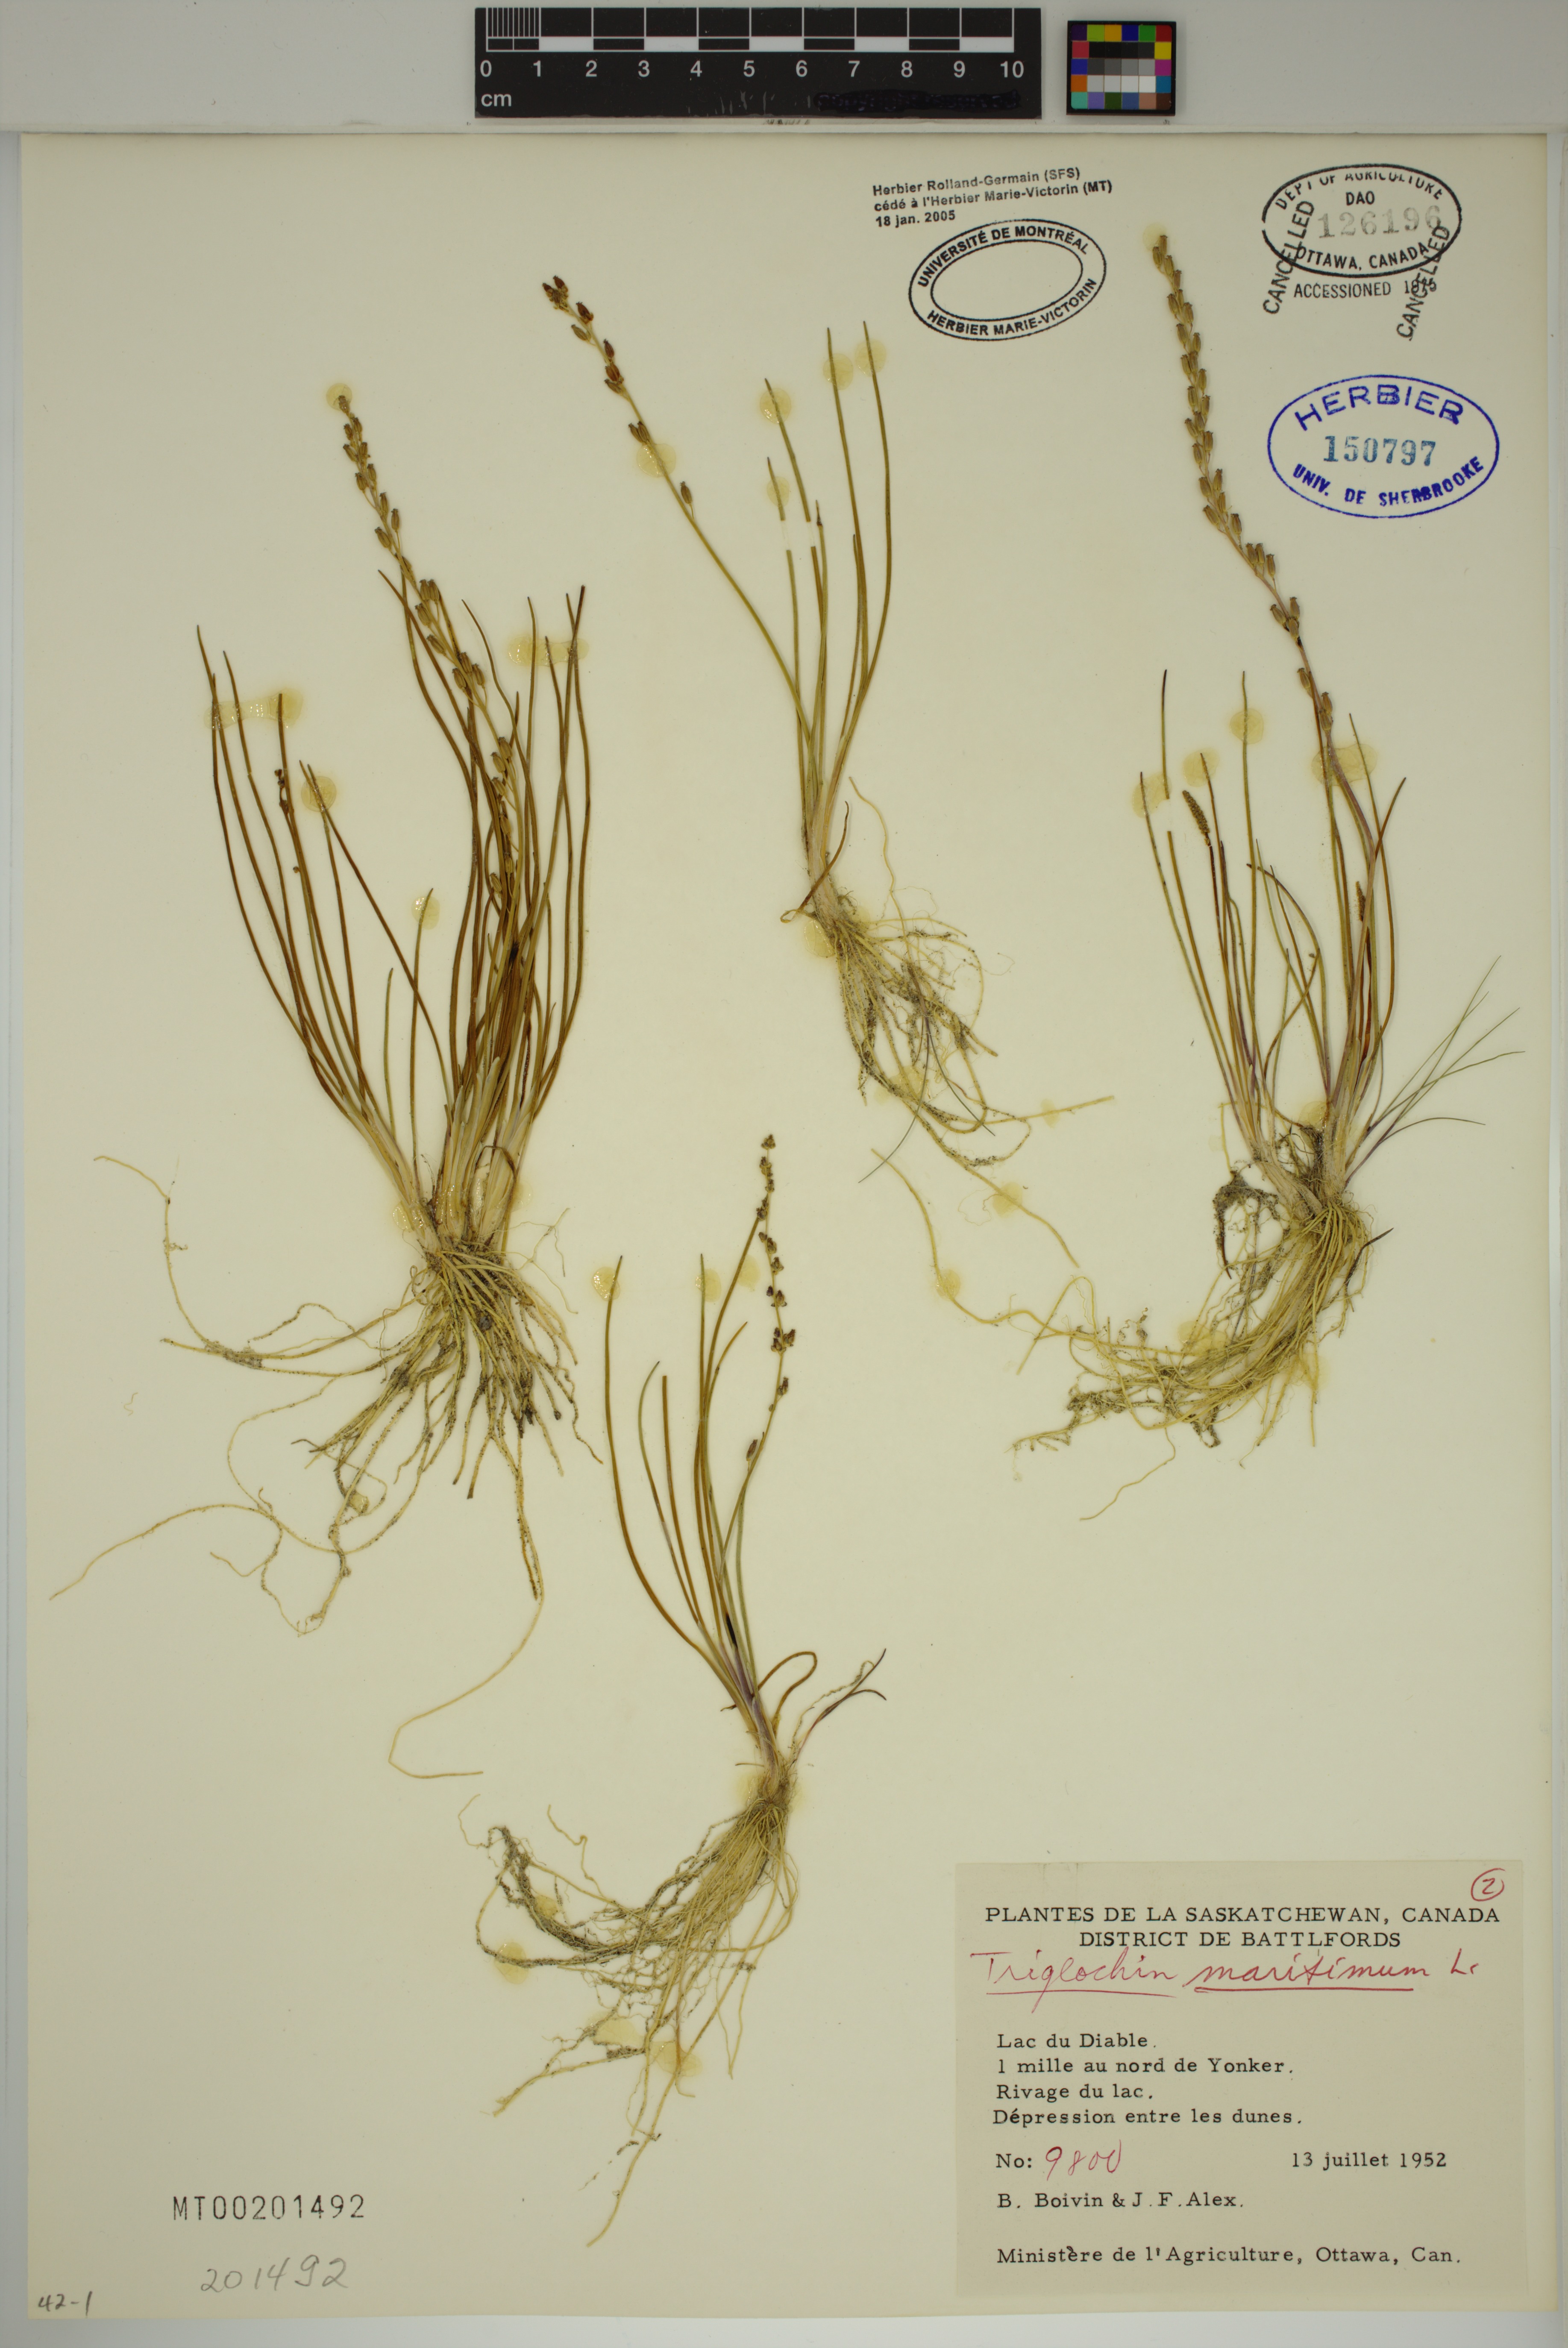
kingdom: Plantae
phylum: Tracheophyta
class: Liliopsida
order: Alismatales
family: Juncaginaceae
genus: Triglochin
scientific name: Triglochin maritima
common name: Sea arrowgrass
